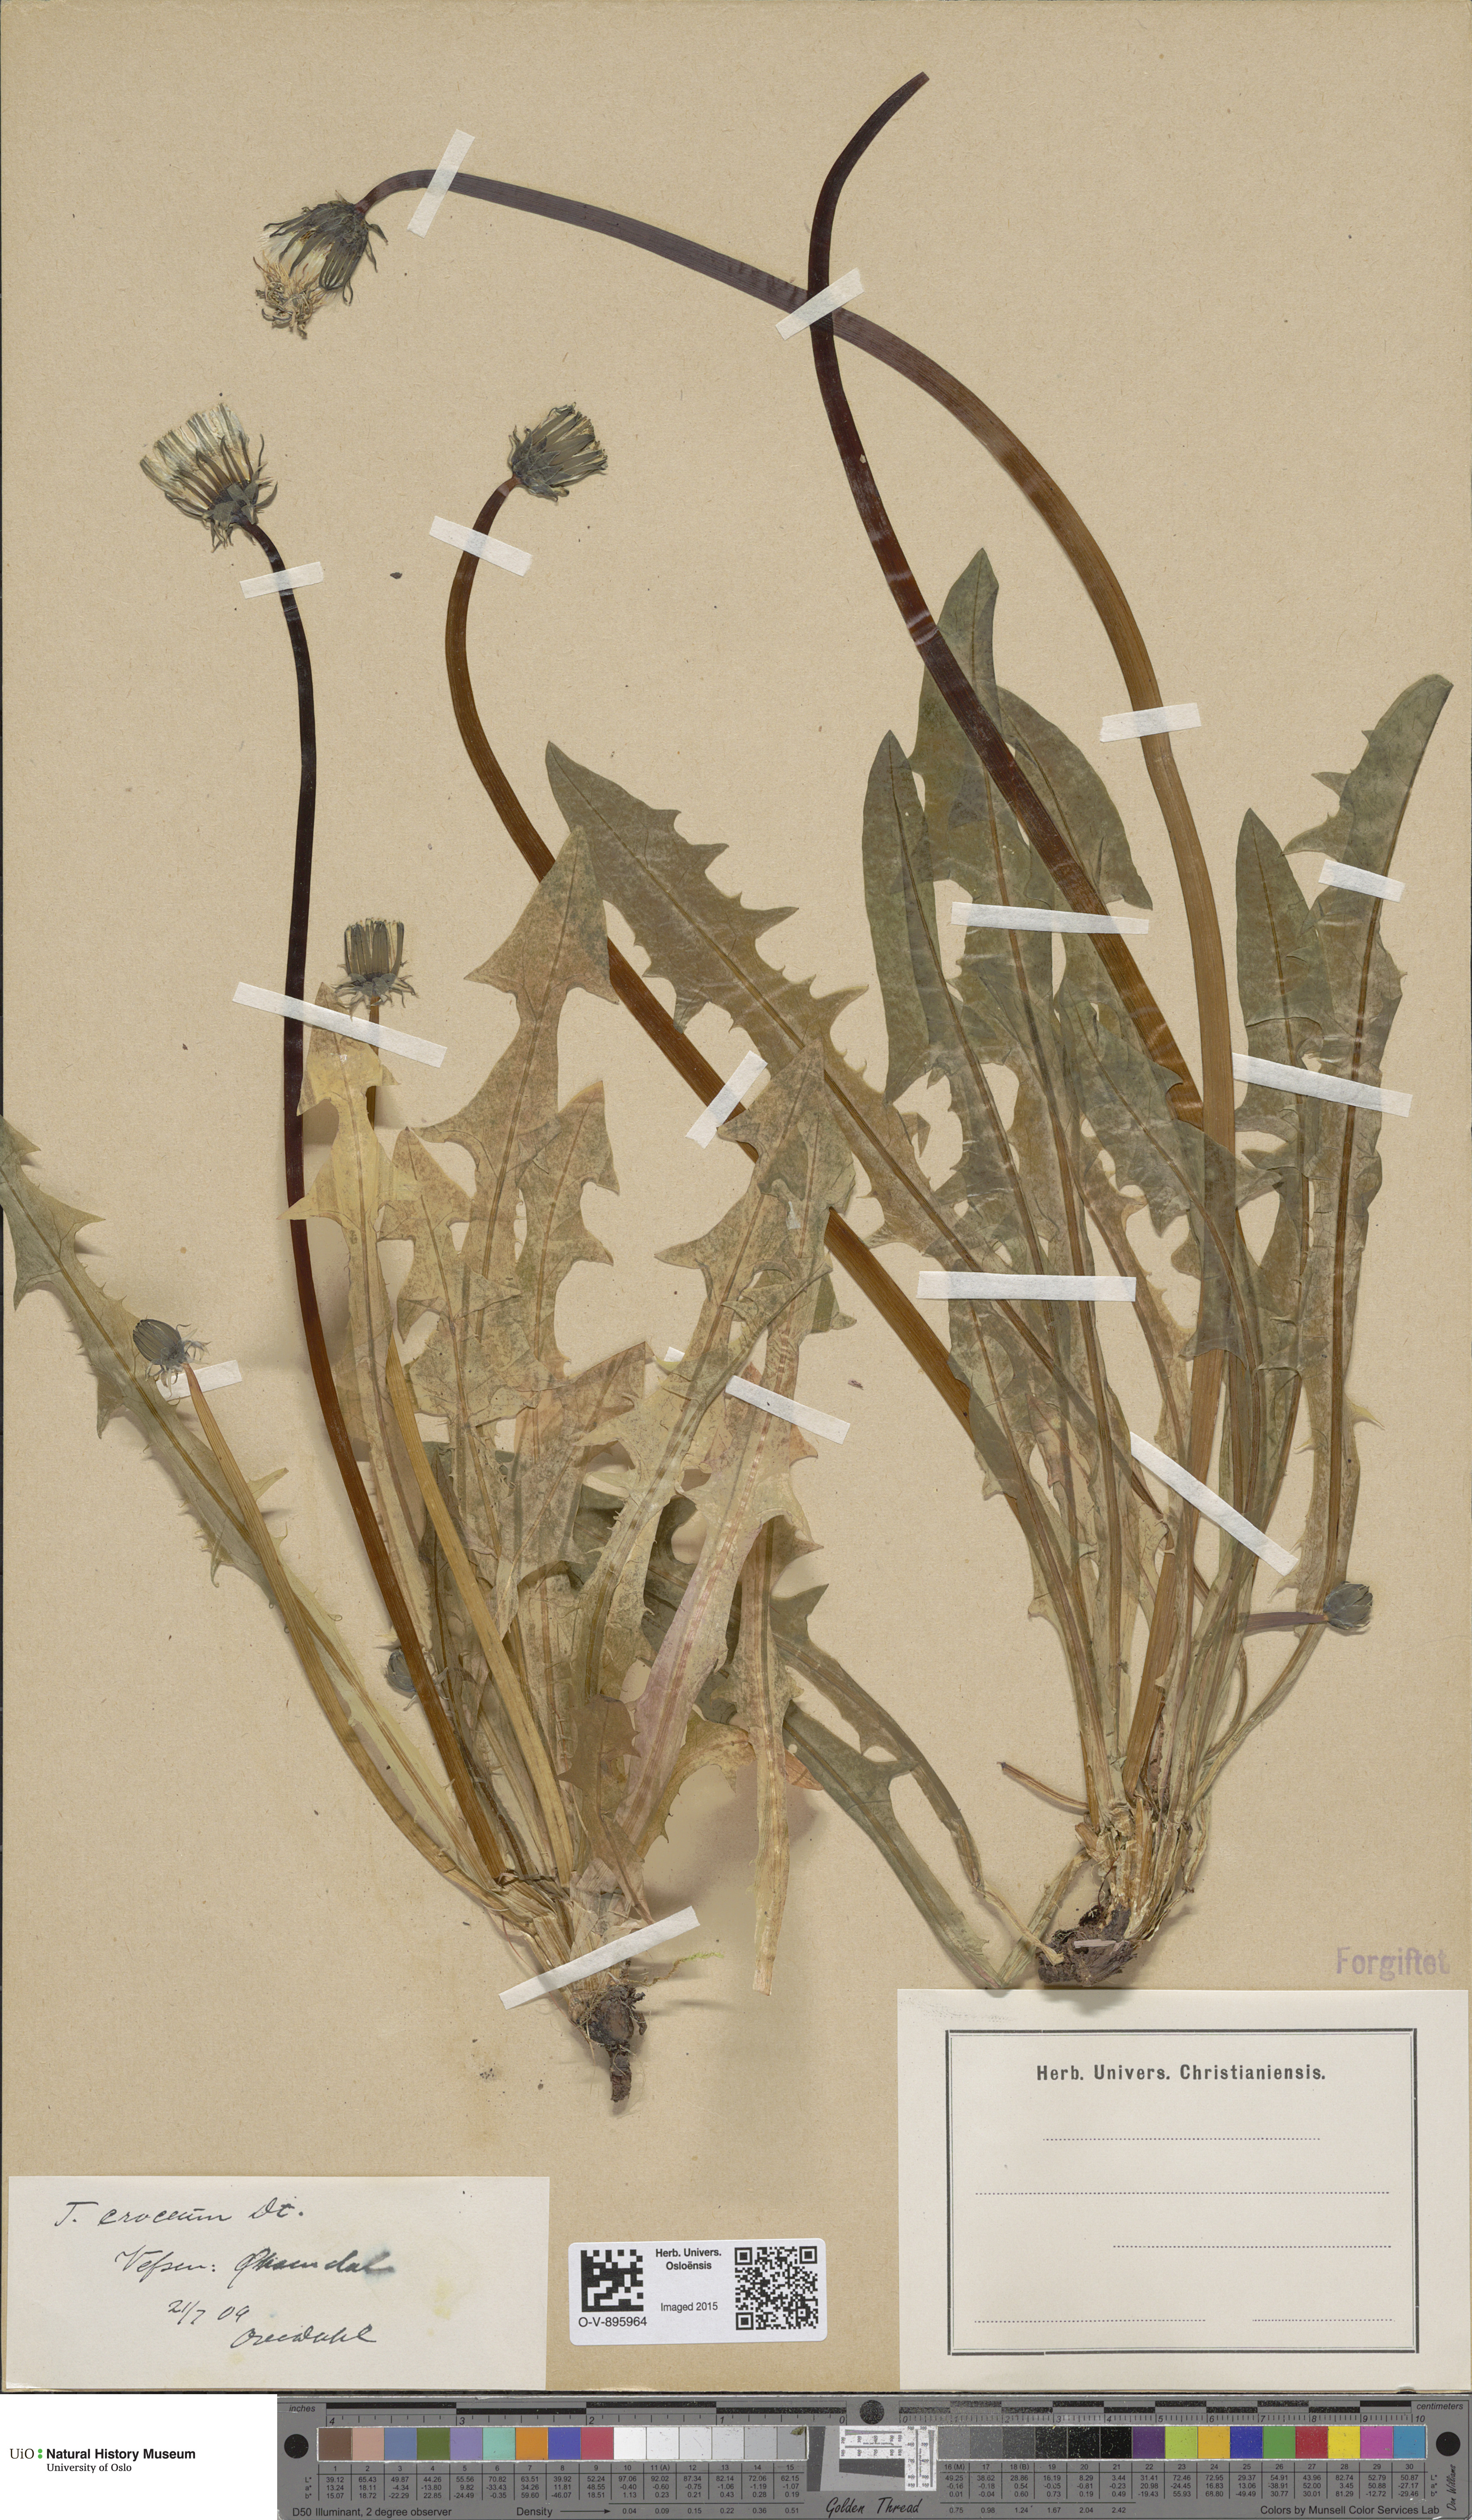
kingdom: Plantae
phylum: Tracheophyta
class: Magnoliopsida
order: Asterales
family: Asteraceae
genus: Taraxacum
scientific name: Taraxacum croceum
